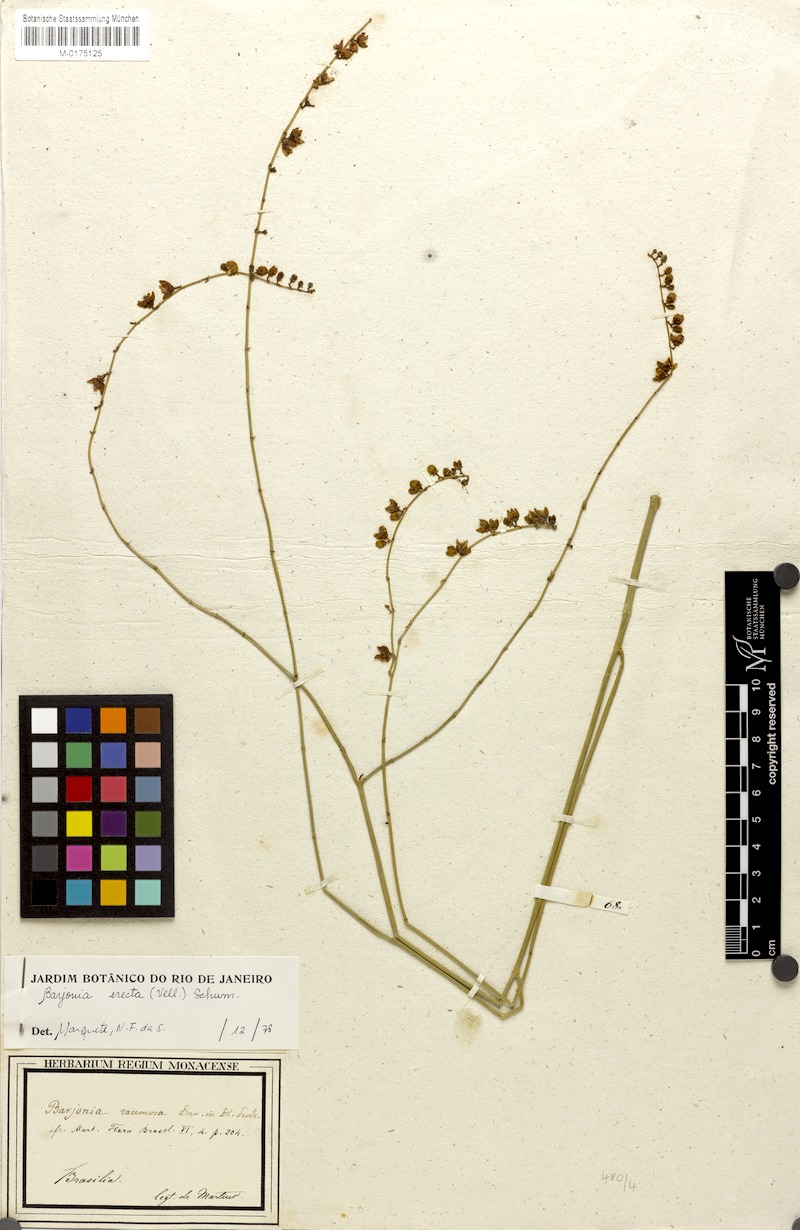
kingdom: Plantae
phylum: Tracheophyta
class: Magnoliopsida
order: Gentianales
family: Apocynaceae
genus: Barjonia
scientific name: Barjonia erecta
